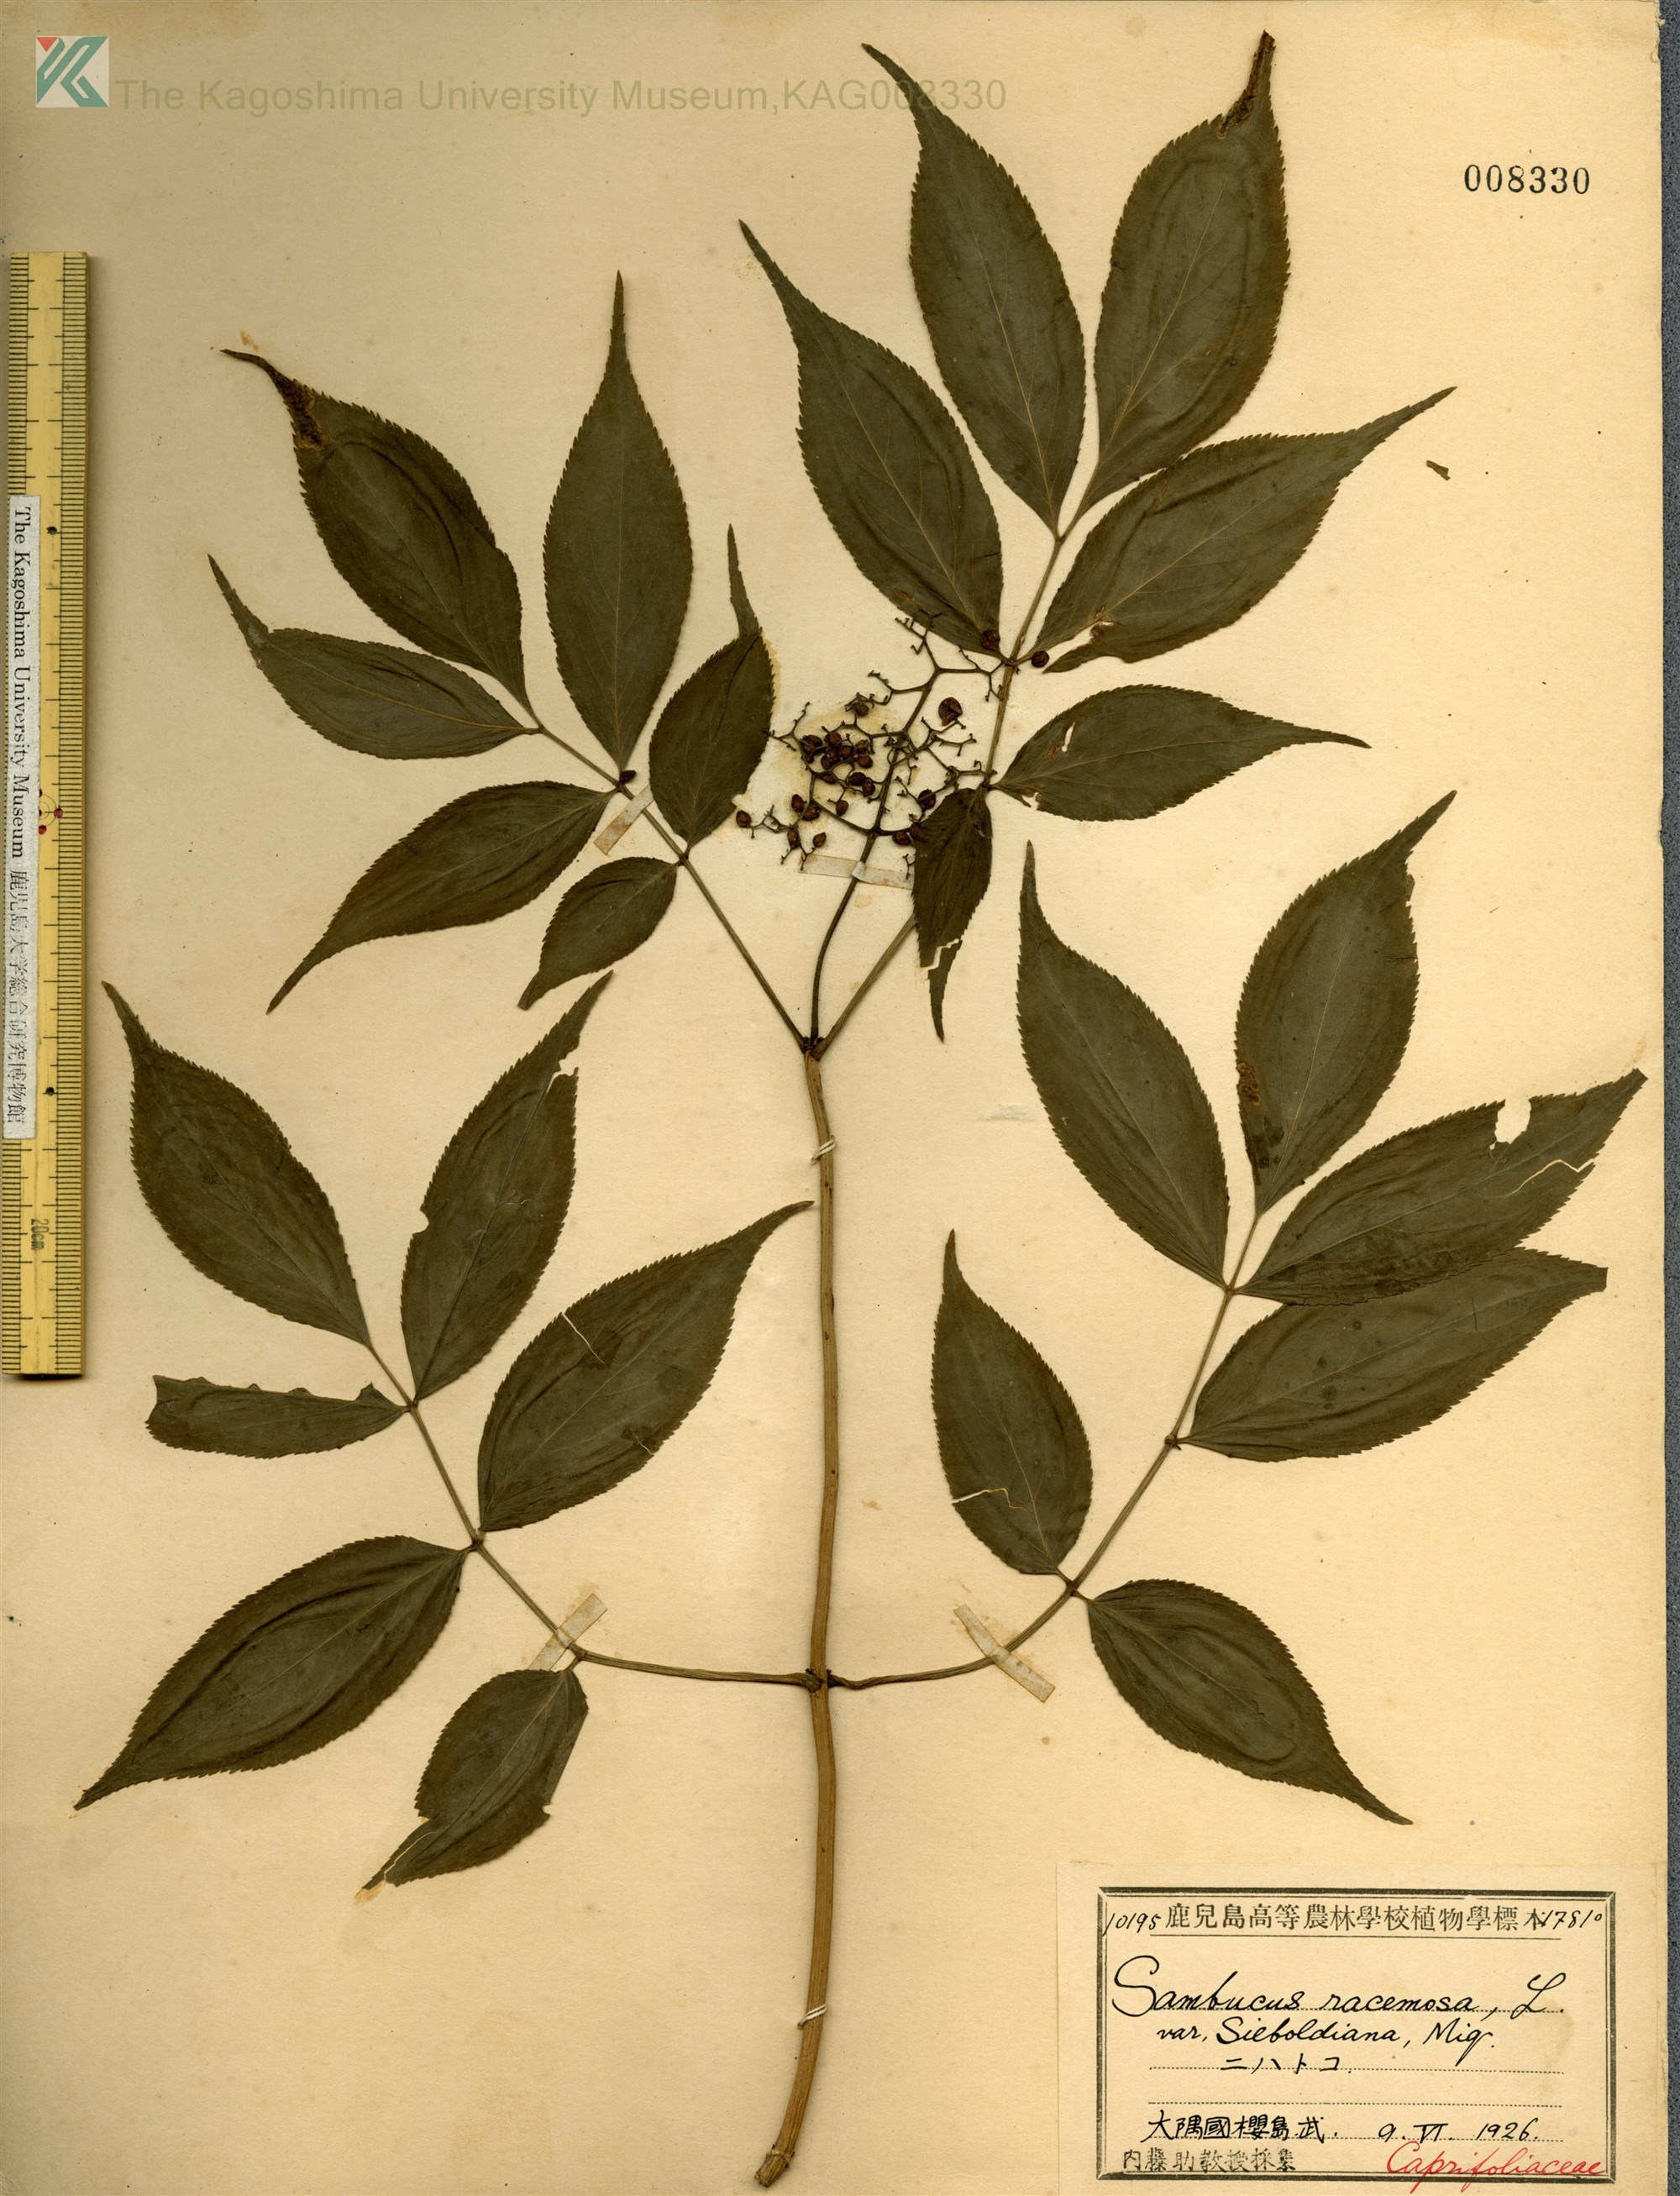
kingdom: Plantae
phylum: Tracheophyta
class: Magnoliopsida
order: Dipsacales
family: Viburnaceae
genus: Sambucus
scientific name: Sambucus sieboldiana
